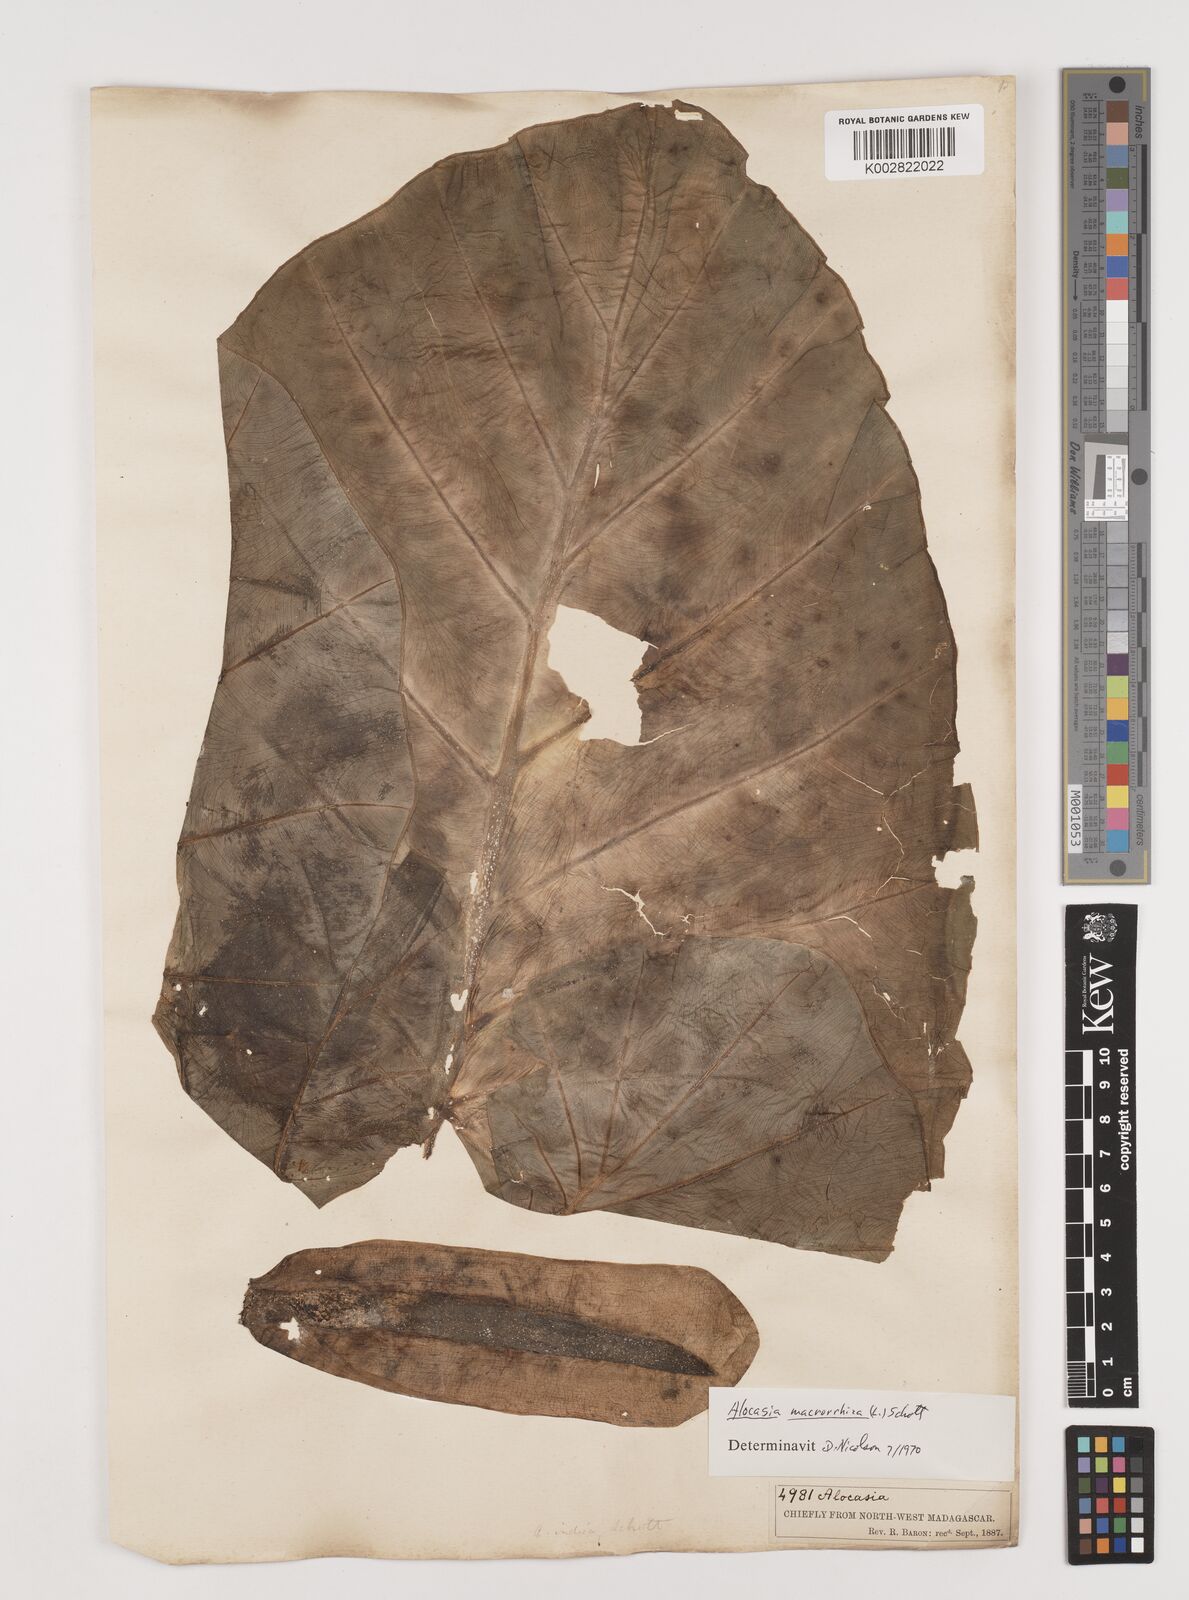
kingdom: Plantae
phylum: Tracheophyta
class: Liliopsida
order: Alismatales
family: Araceae
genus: Alocasia
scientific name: Alocasia macrorrhizos
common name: Giant taro
